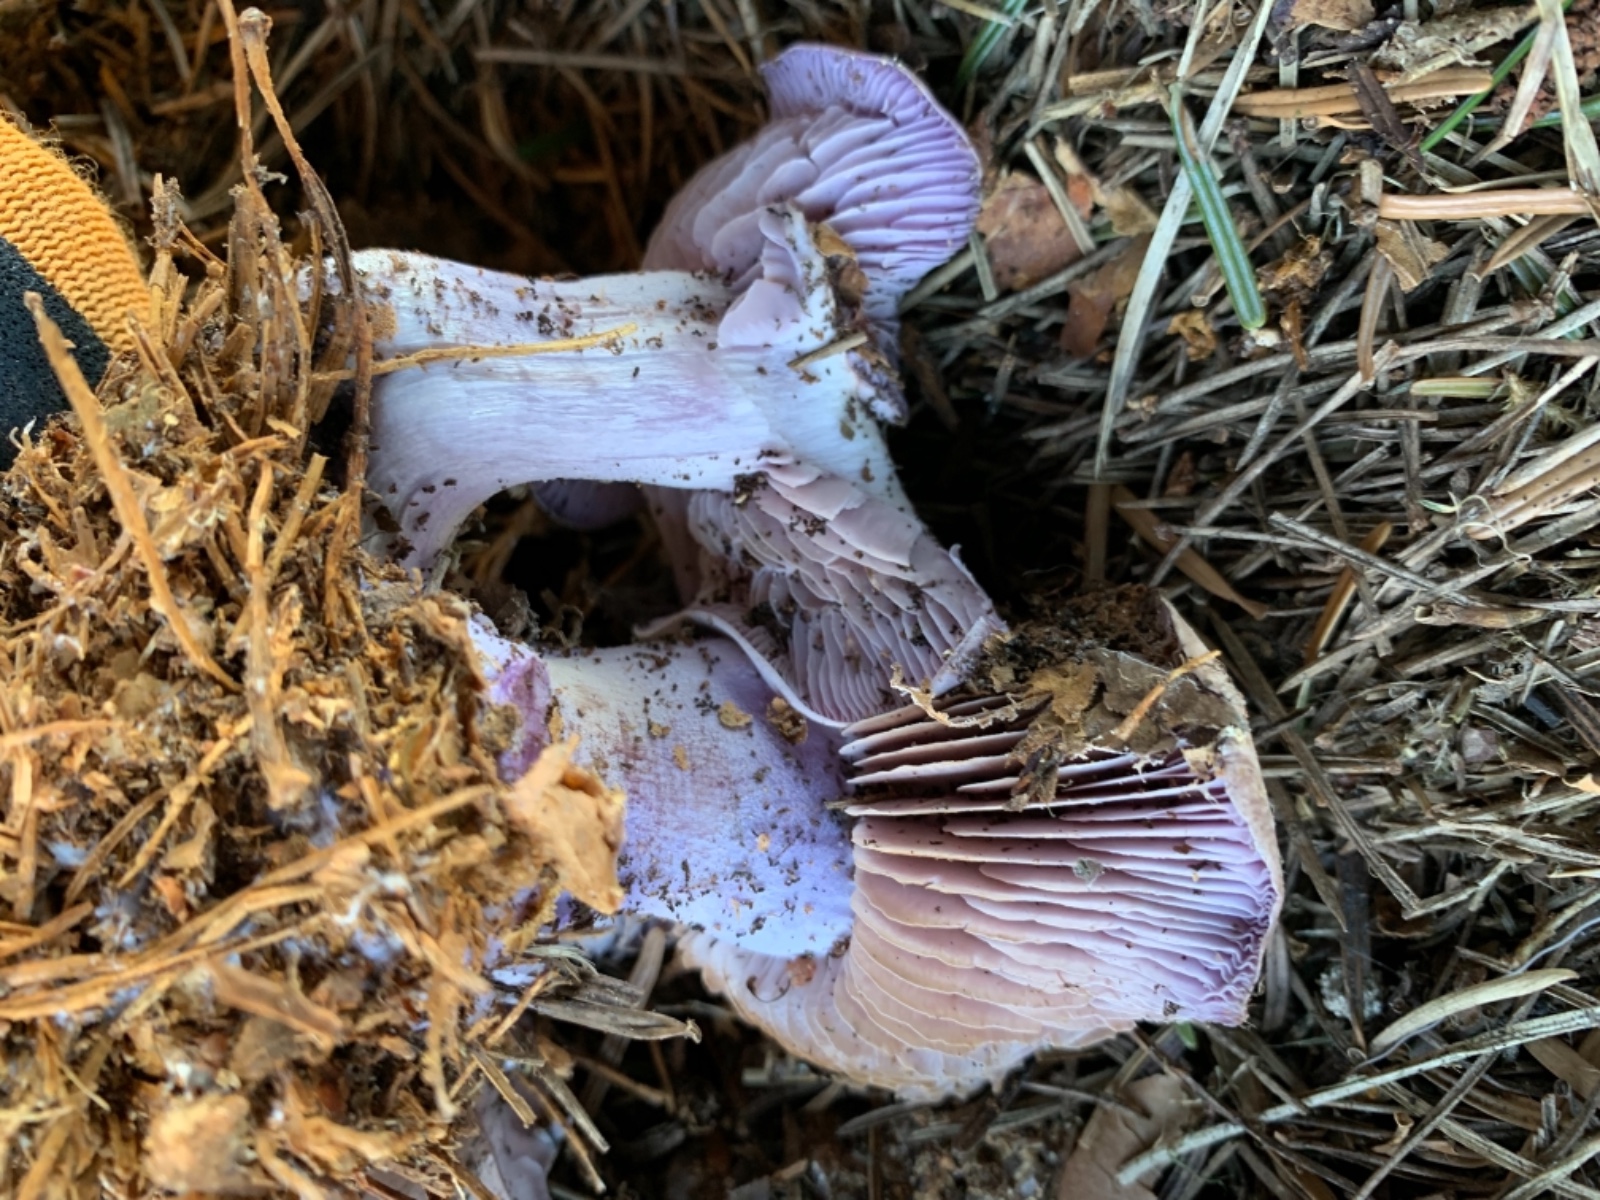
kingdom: Fungi
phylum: Basidiomycota
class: Agaricomycetes
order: Agaricales
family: Tricholomataceae
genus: Lepista
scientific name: Lepista nuda
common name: violet hekseringshat
